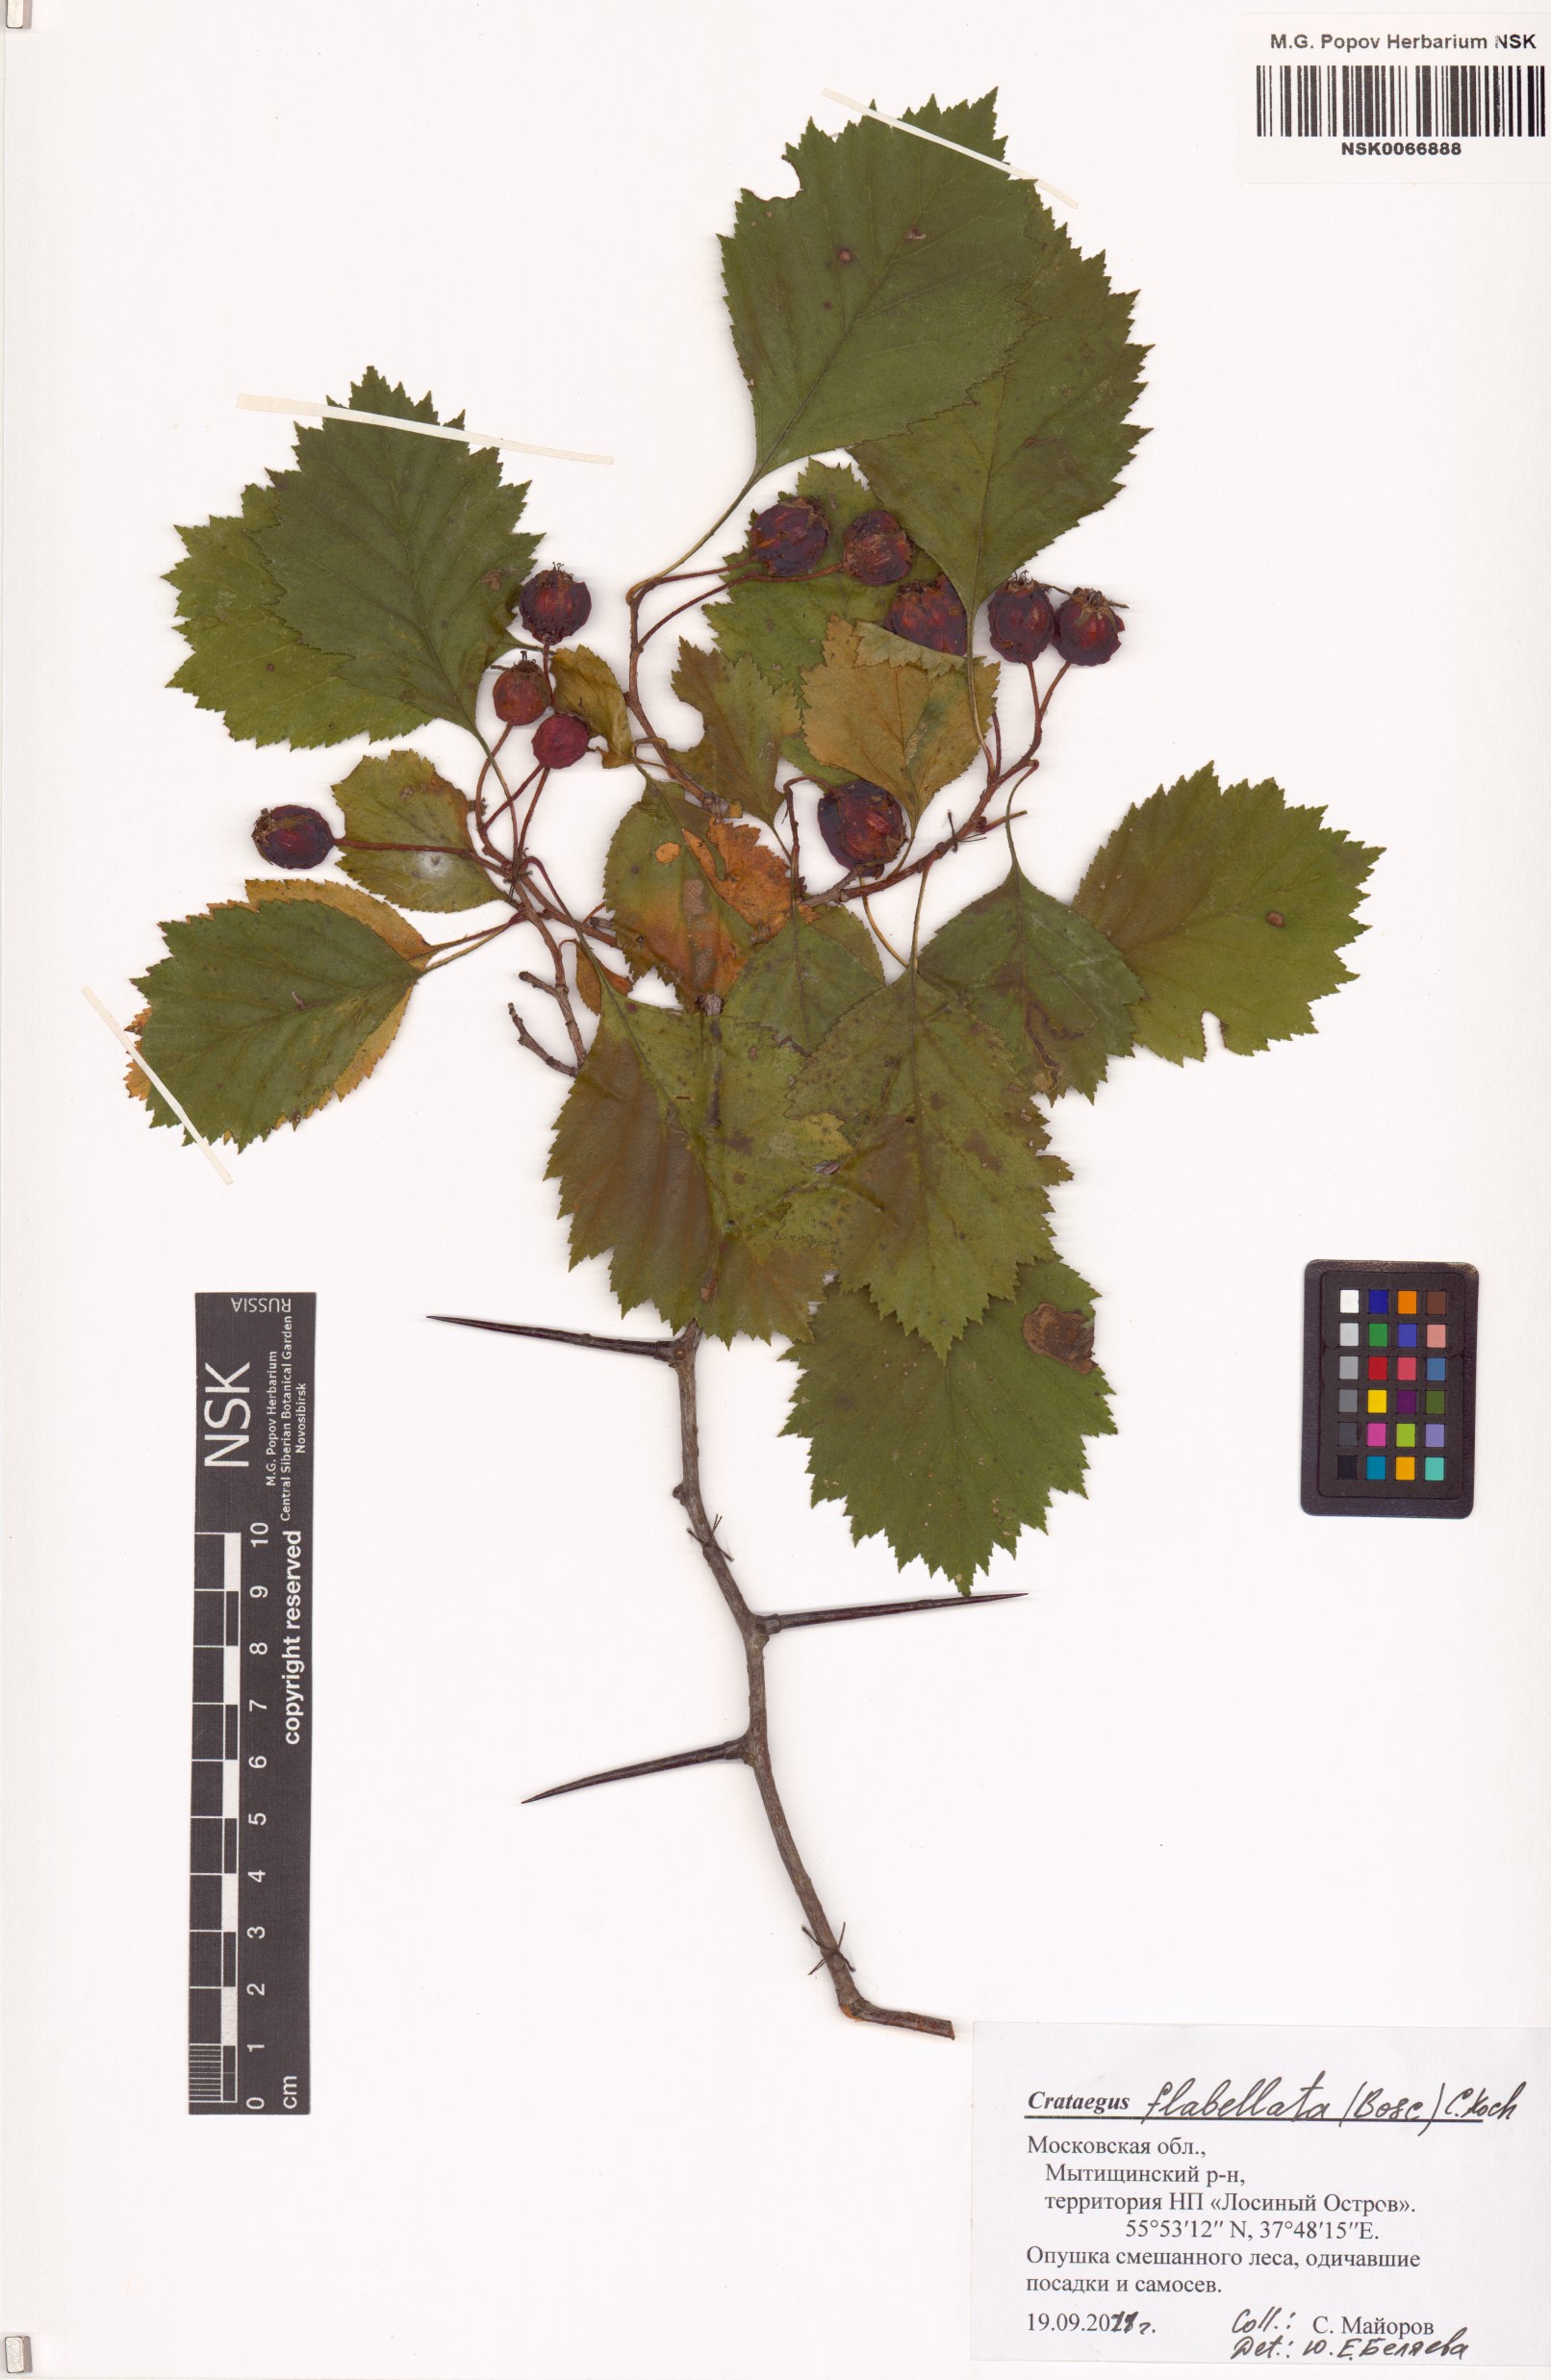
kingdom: Plantae
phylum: Tracheophyta
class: Magnoliopsida
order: Rosales
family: Rosaceae
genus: Crataegus
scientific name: Crataegus flabellata
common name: Bosc's hawthorn
